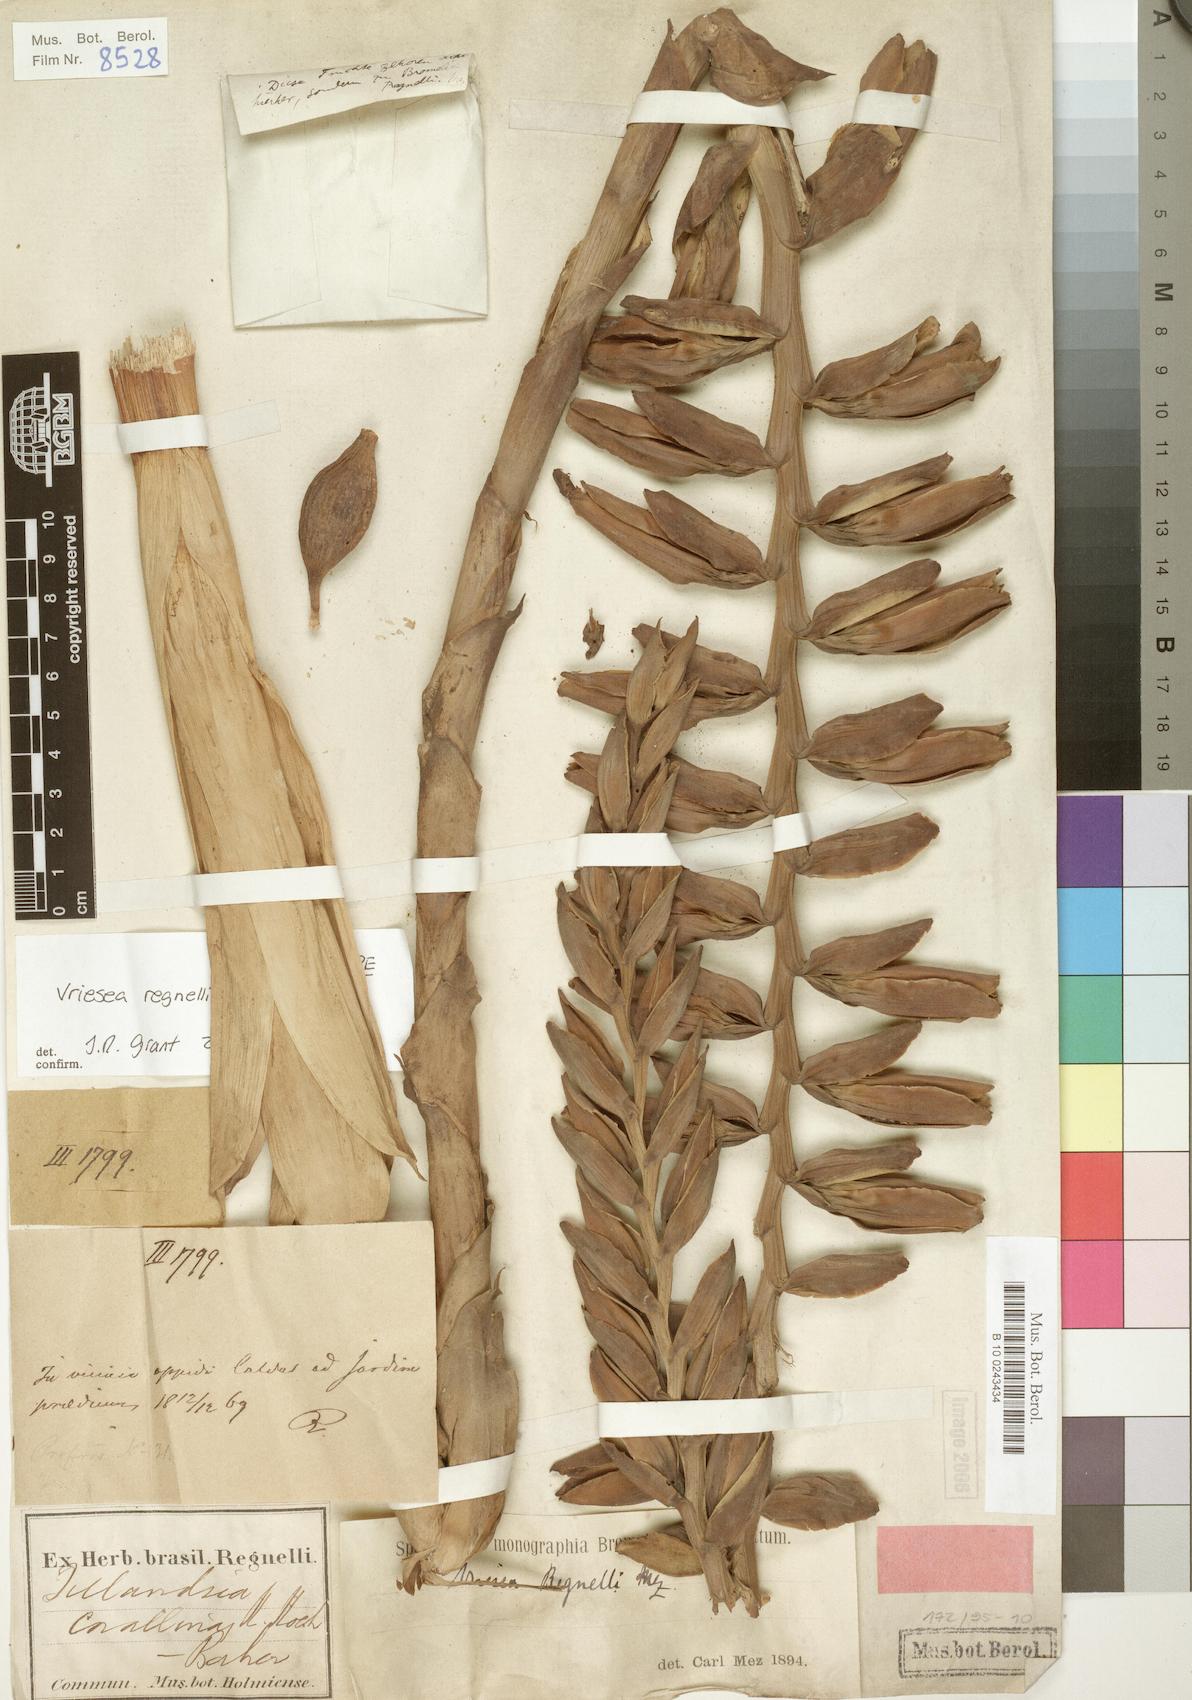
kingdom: Plantae
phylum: Tracheophyta
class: Liliopsida
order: Poales
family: Bromeliaceae
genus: Vriesea
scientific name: Vriesea regnellii
